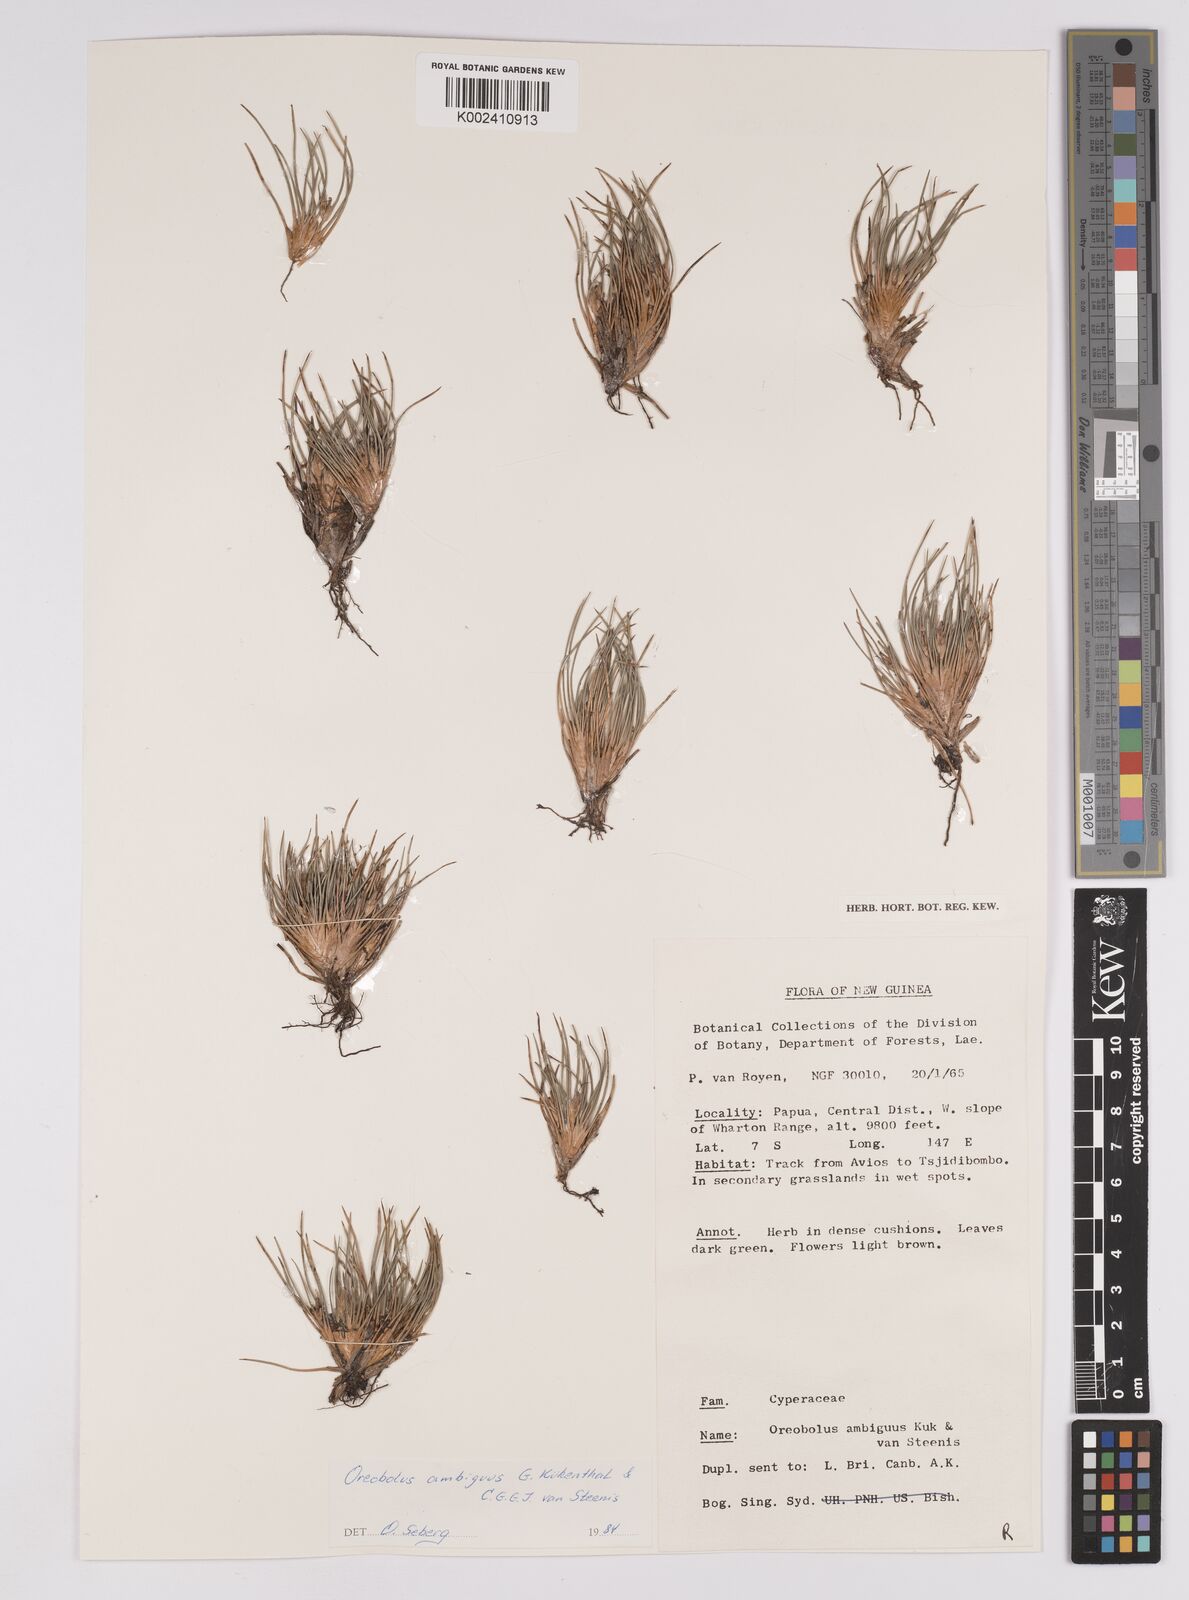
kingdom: Plantae
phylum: Tracheophyta
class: Liliopsida
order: Poales
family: Cyperaceae
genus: Oreobolus
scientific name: Oreobolus ambiguus
